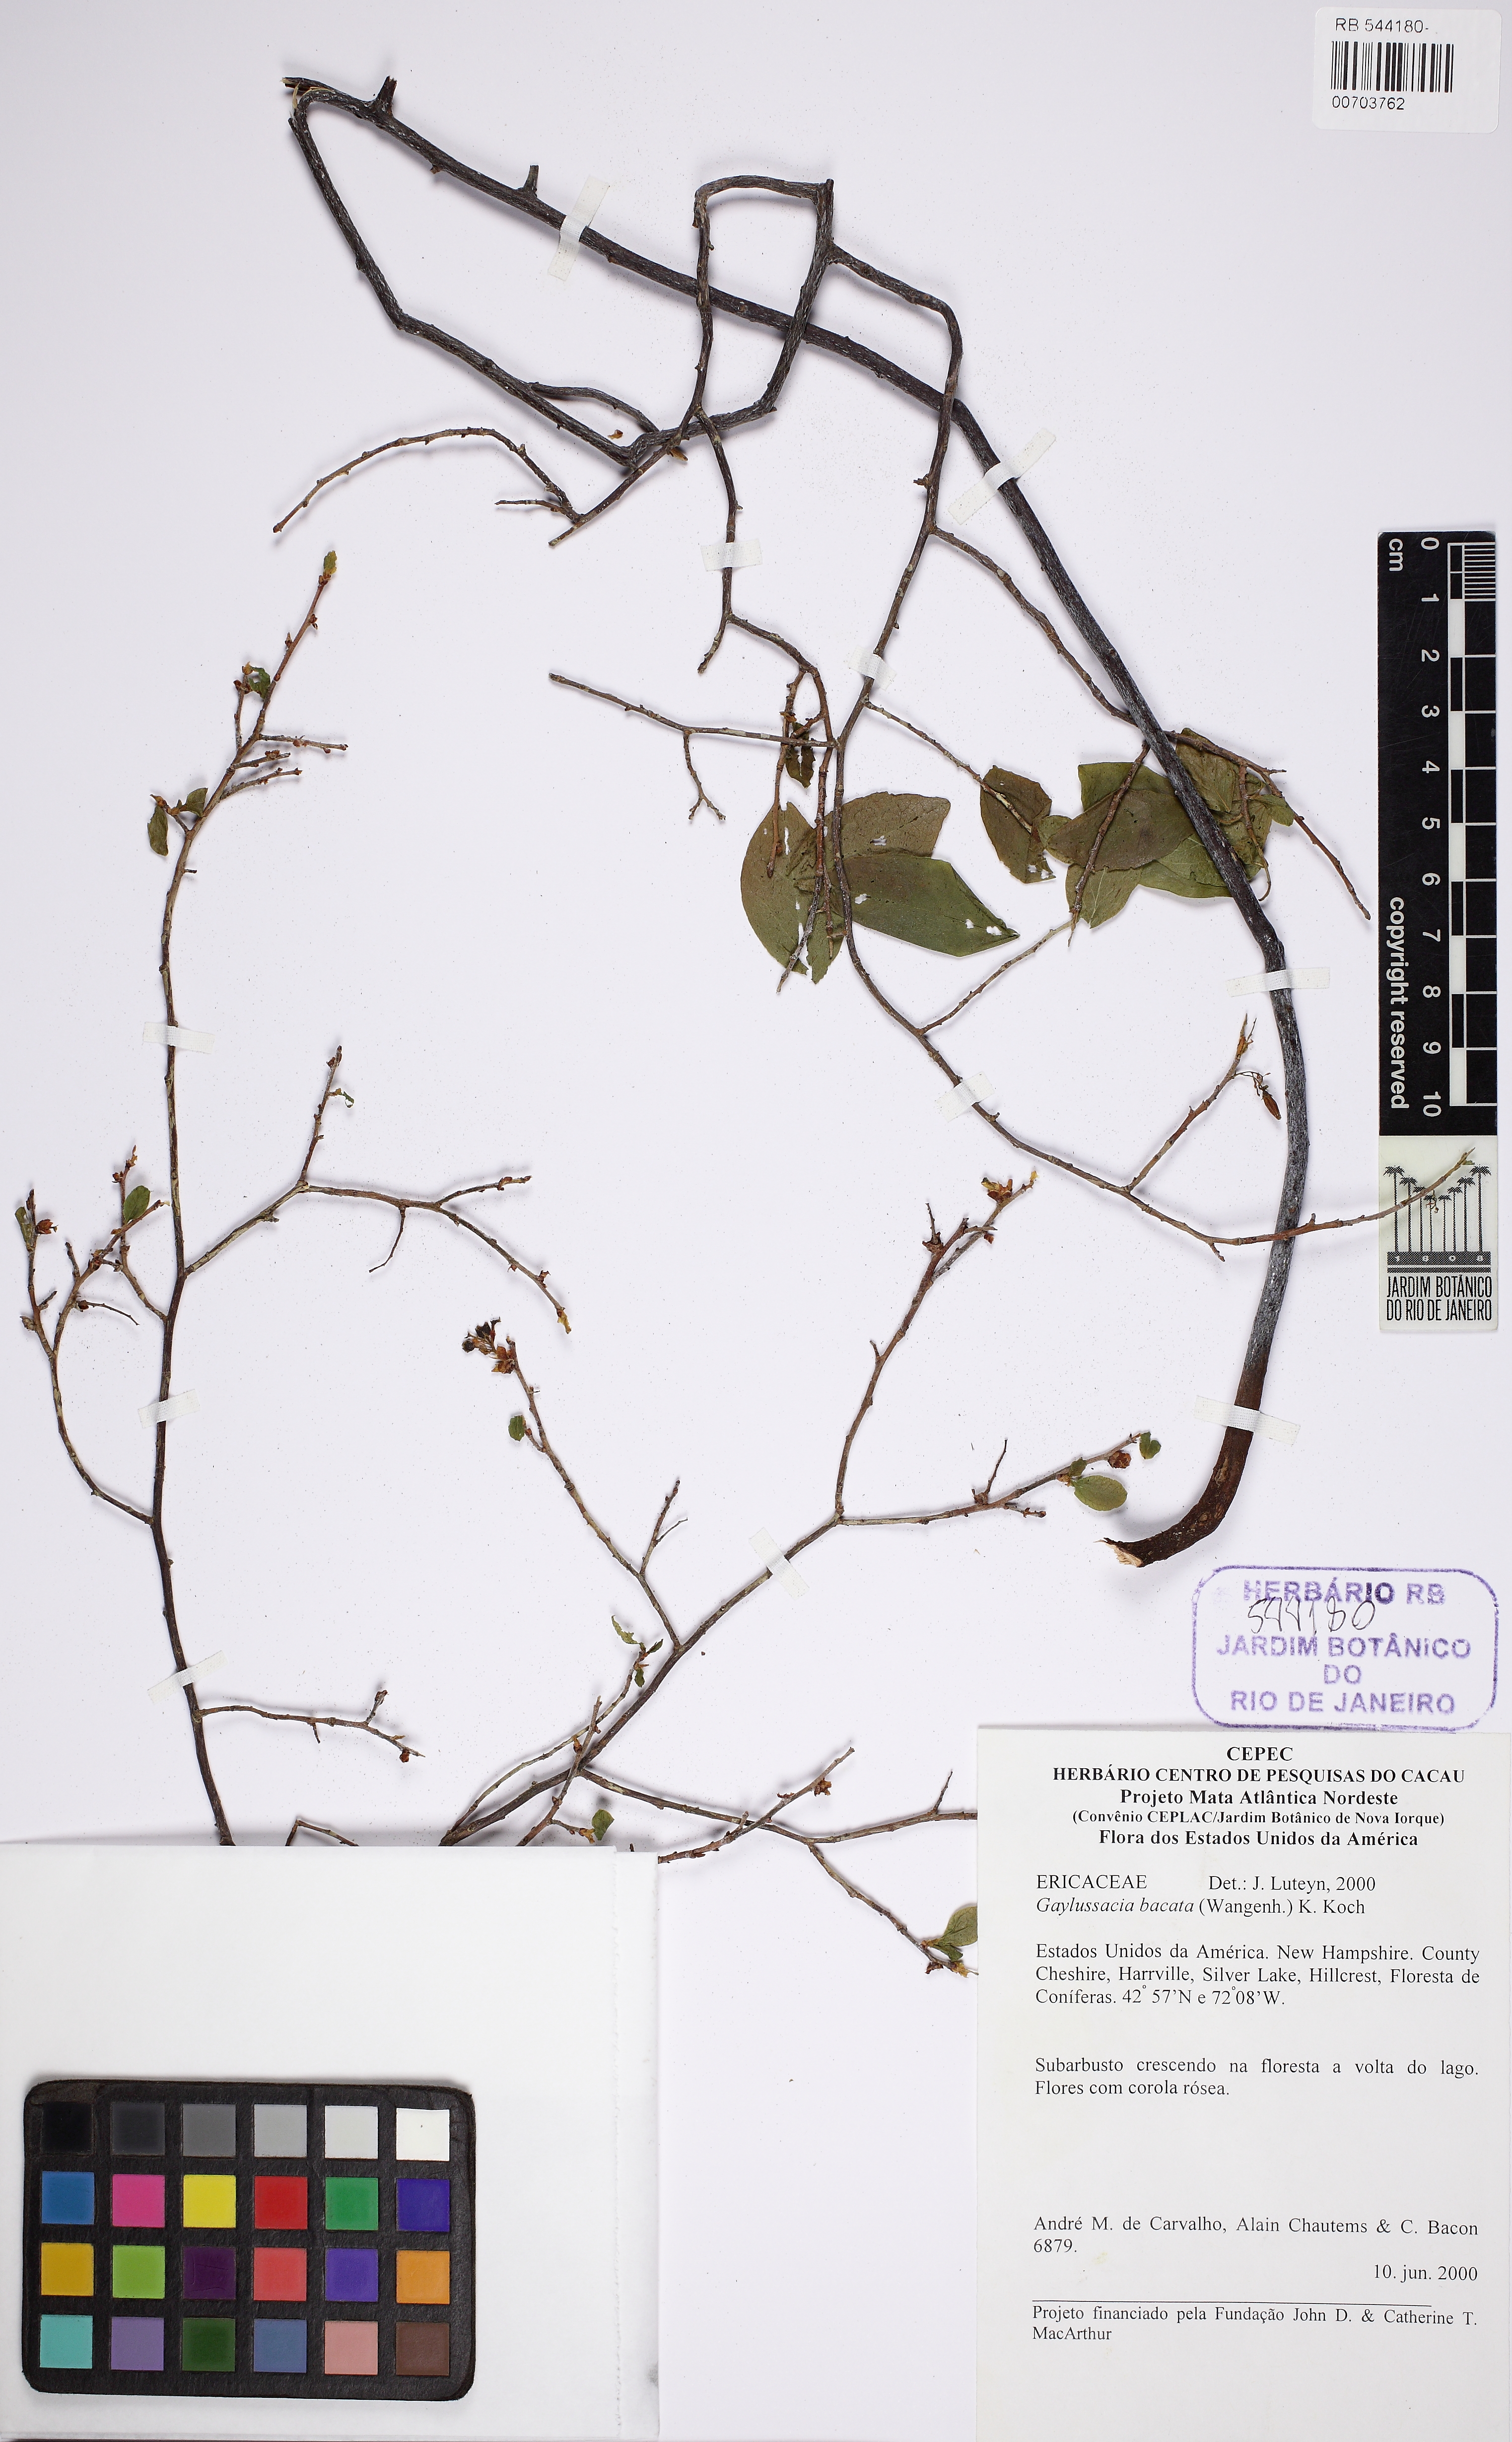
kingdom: Plantae
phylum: Tracheophyta
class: Magnoliopsida
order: Ericales
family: Ericaceae
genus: Gaylussacia
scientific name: Gaylussacia baccata
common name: Black huckleberry
